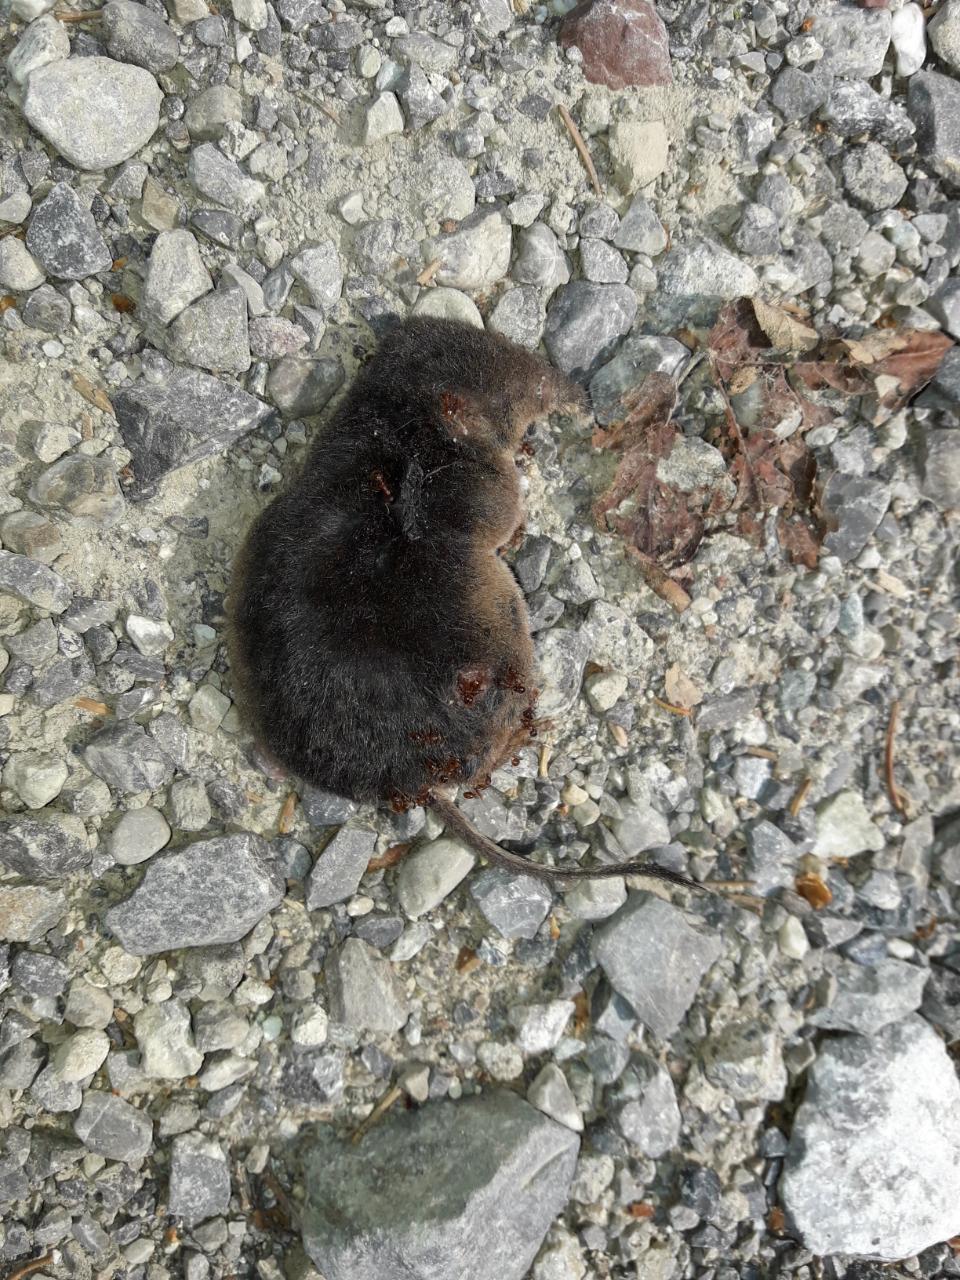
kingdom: Animalia
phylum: Chordata
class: Mammalia
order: Soricomorpha
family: Soricidae
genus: Sorex
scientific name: Sorex araneus
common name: Common shrew
